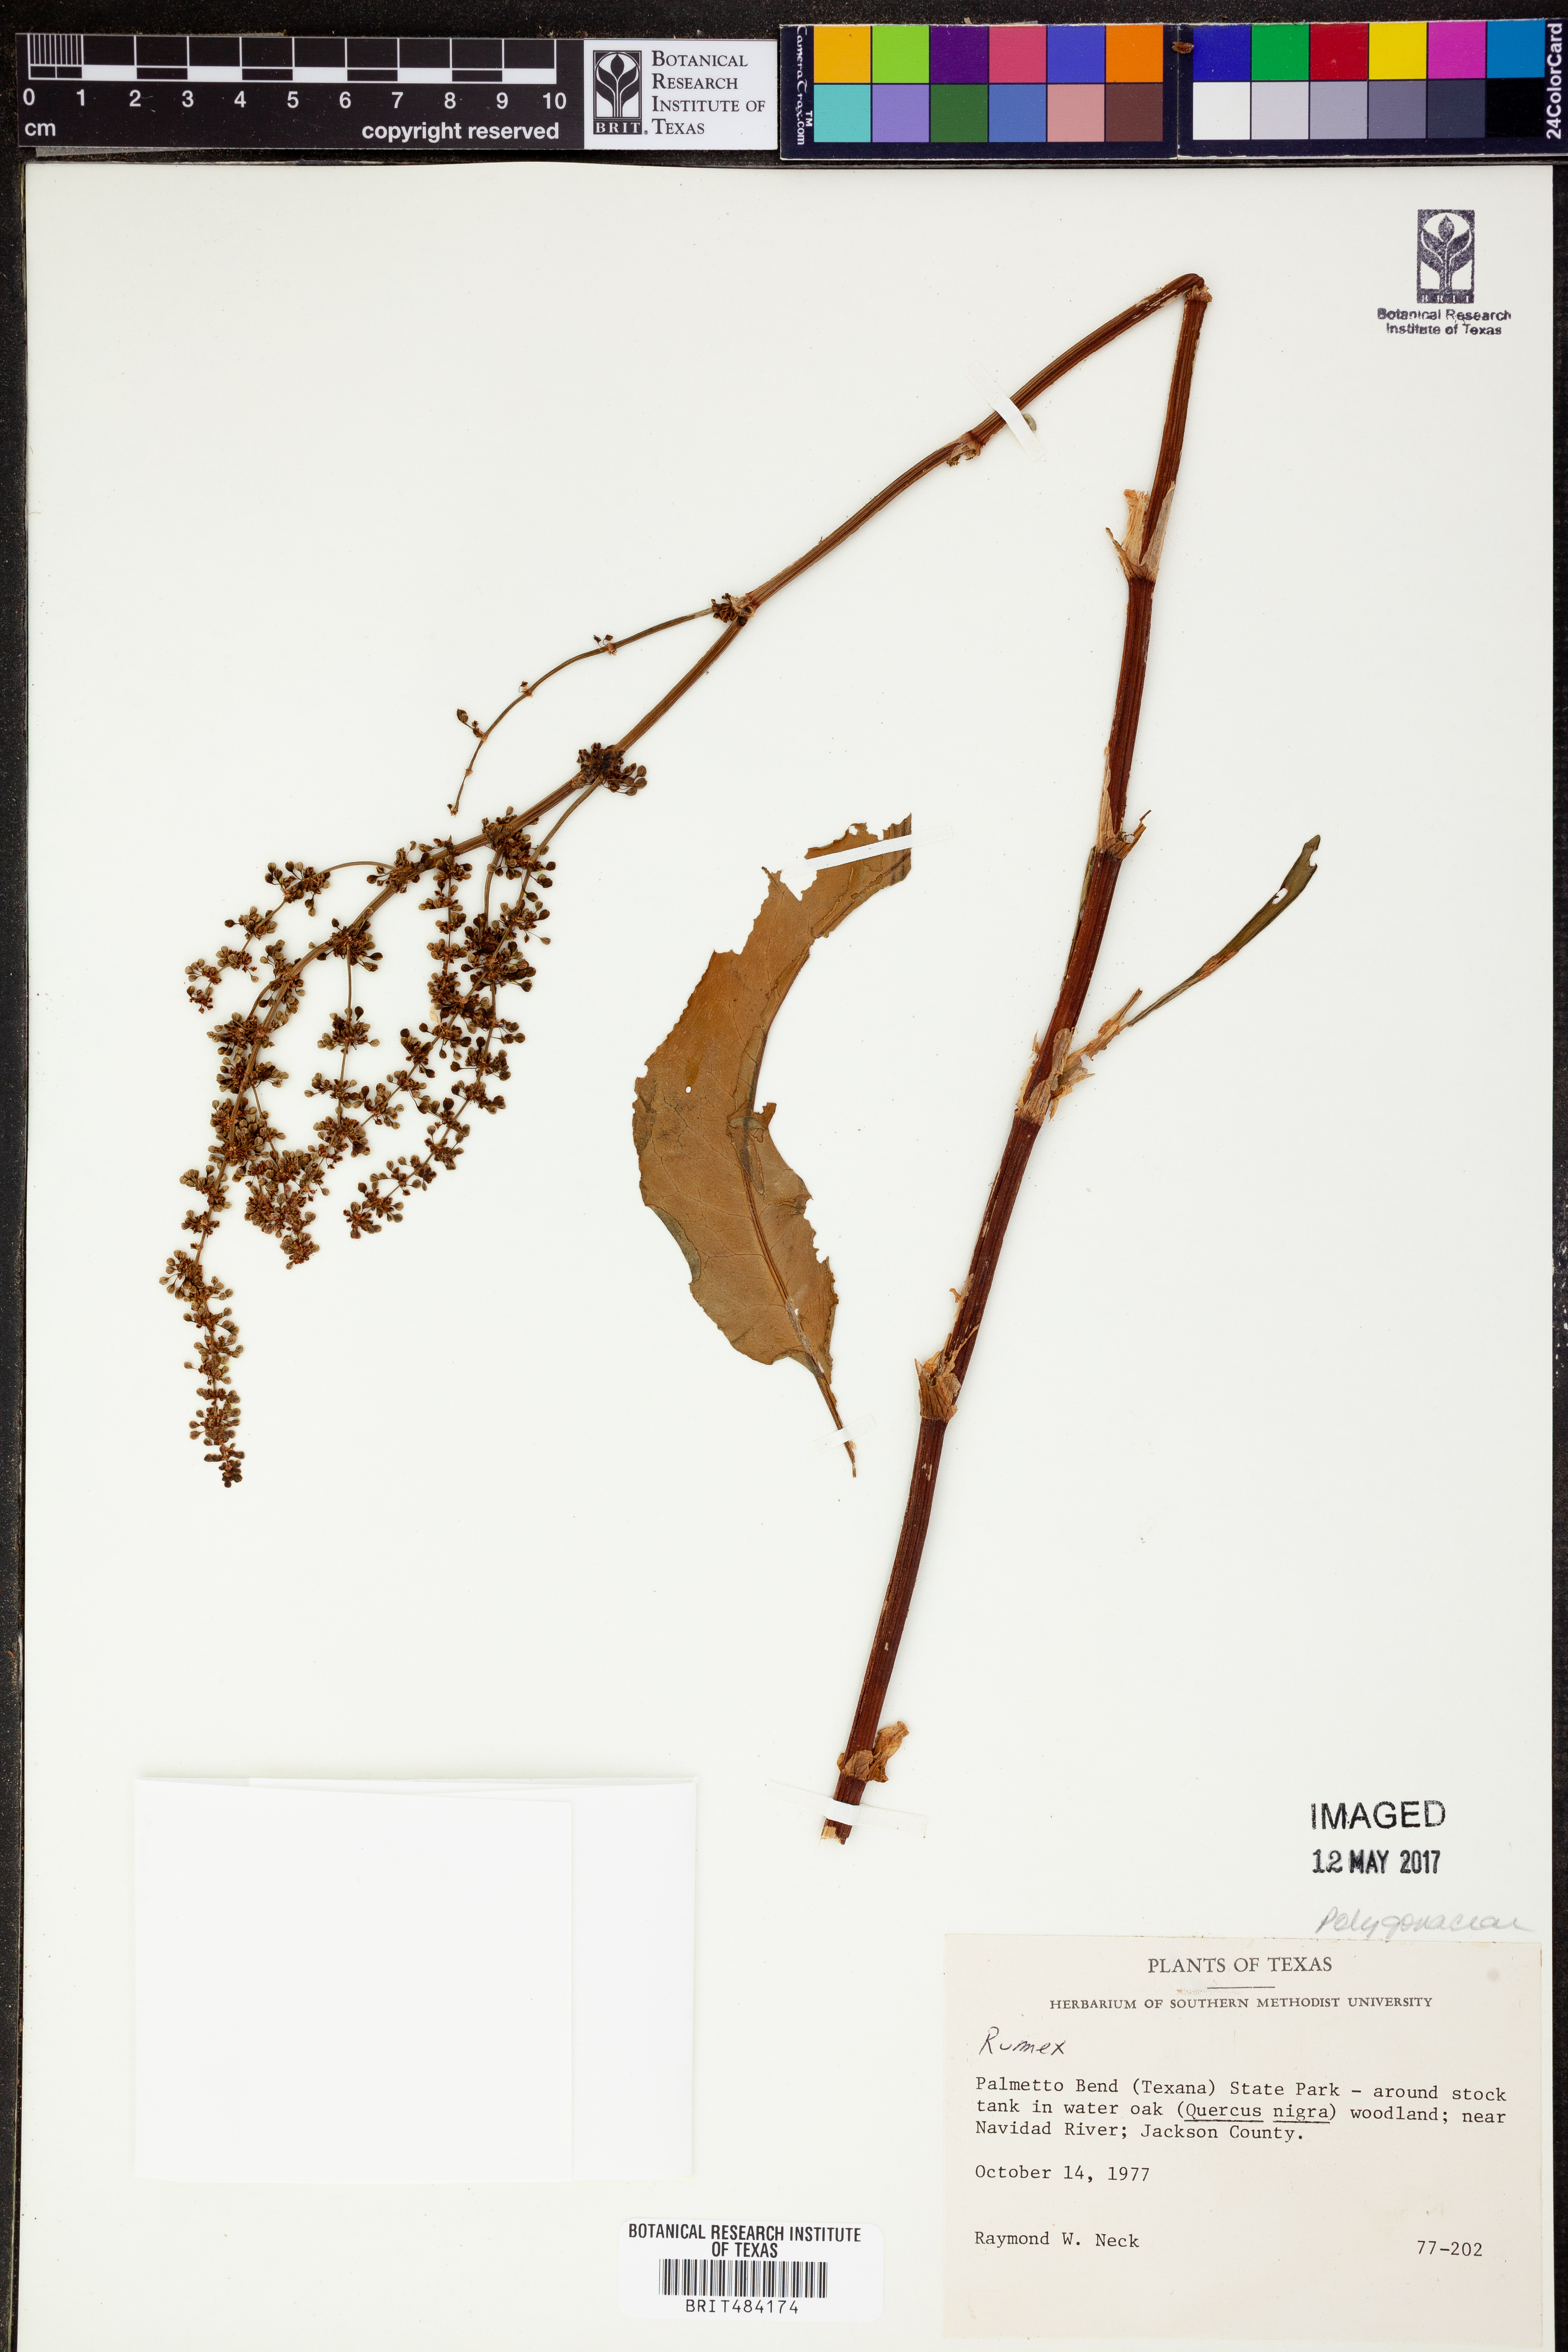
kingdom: Plantae
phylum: Tracheophyta
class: Magnoliopsida
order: Caryophyllales
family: Polygonaceae
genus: Rumex
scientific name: Rumex
